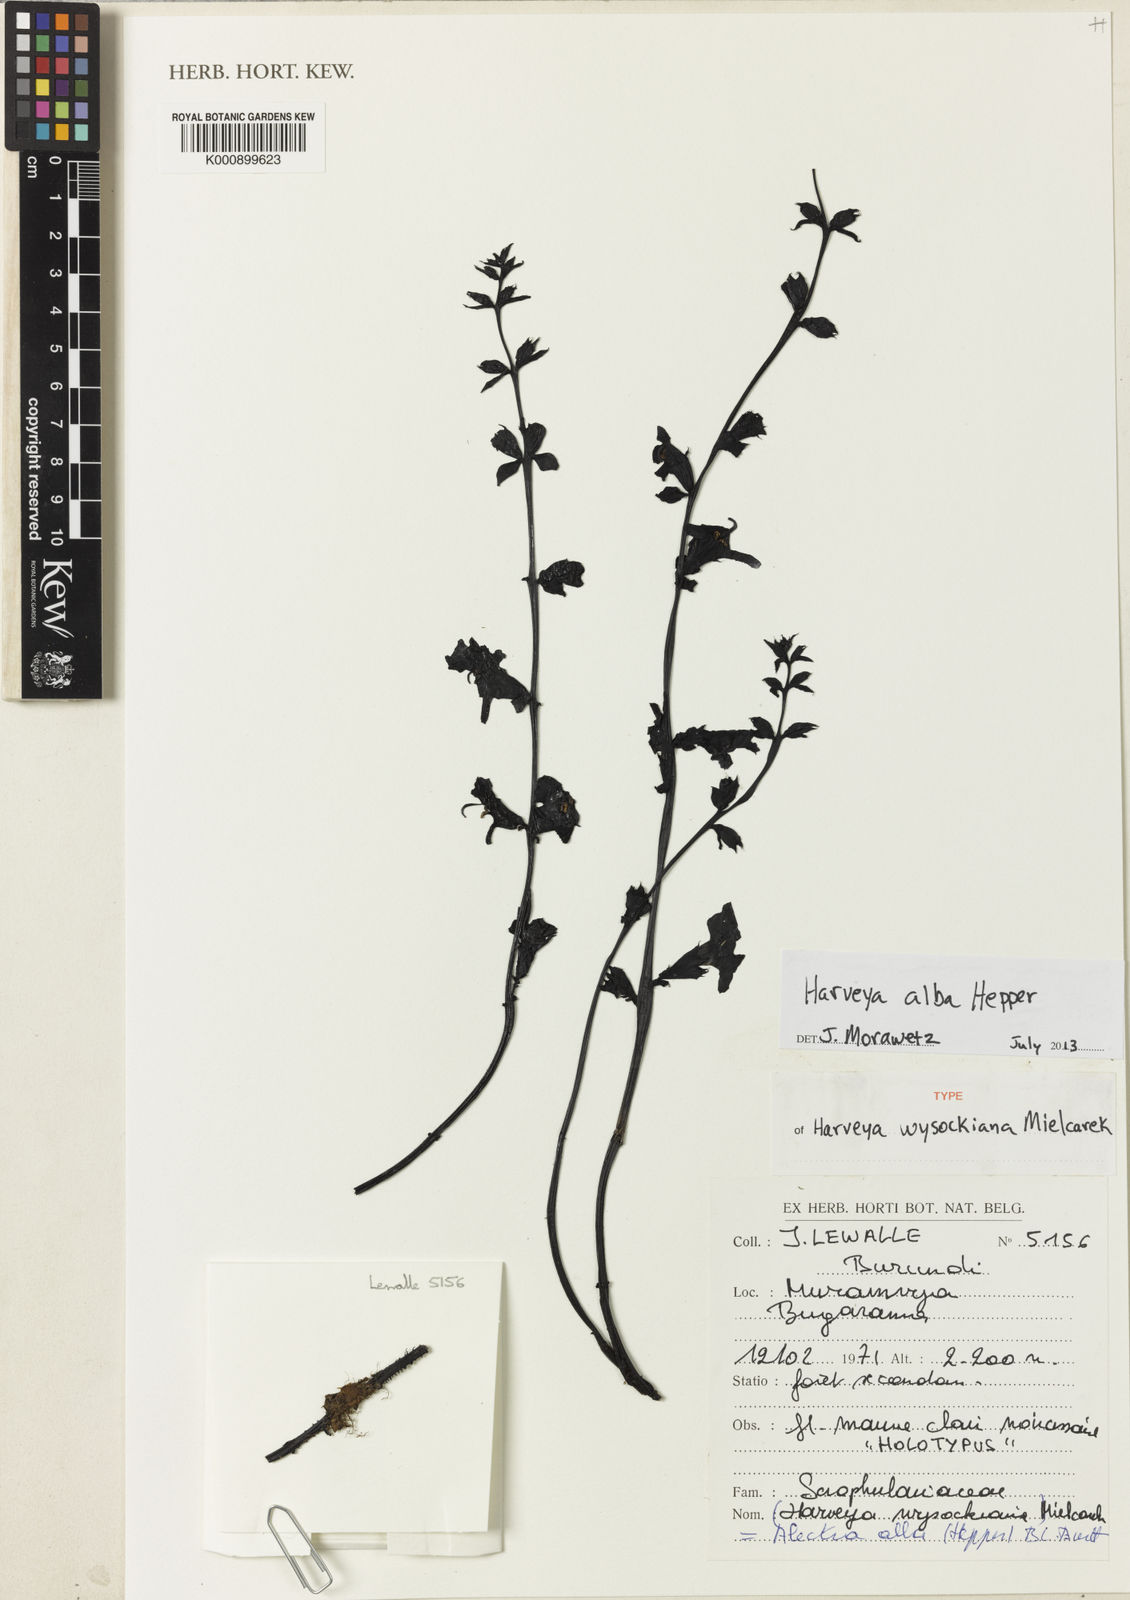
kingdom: Plantae
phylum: Tracheophyta
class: Magnoliopsida
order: Lamiales
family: Orobanchaceae
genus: Harveya
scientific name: Harveya alba
